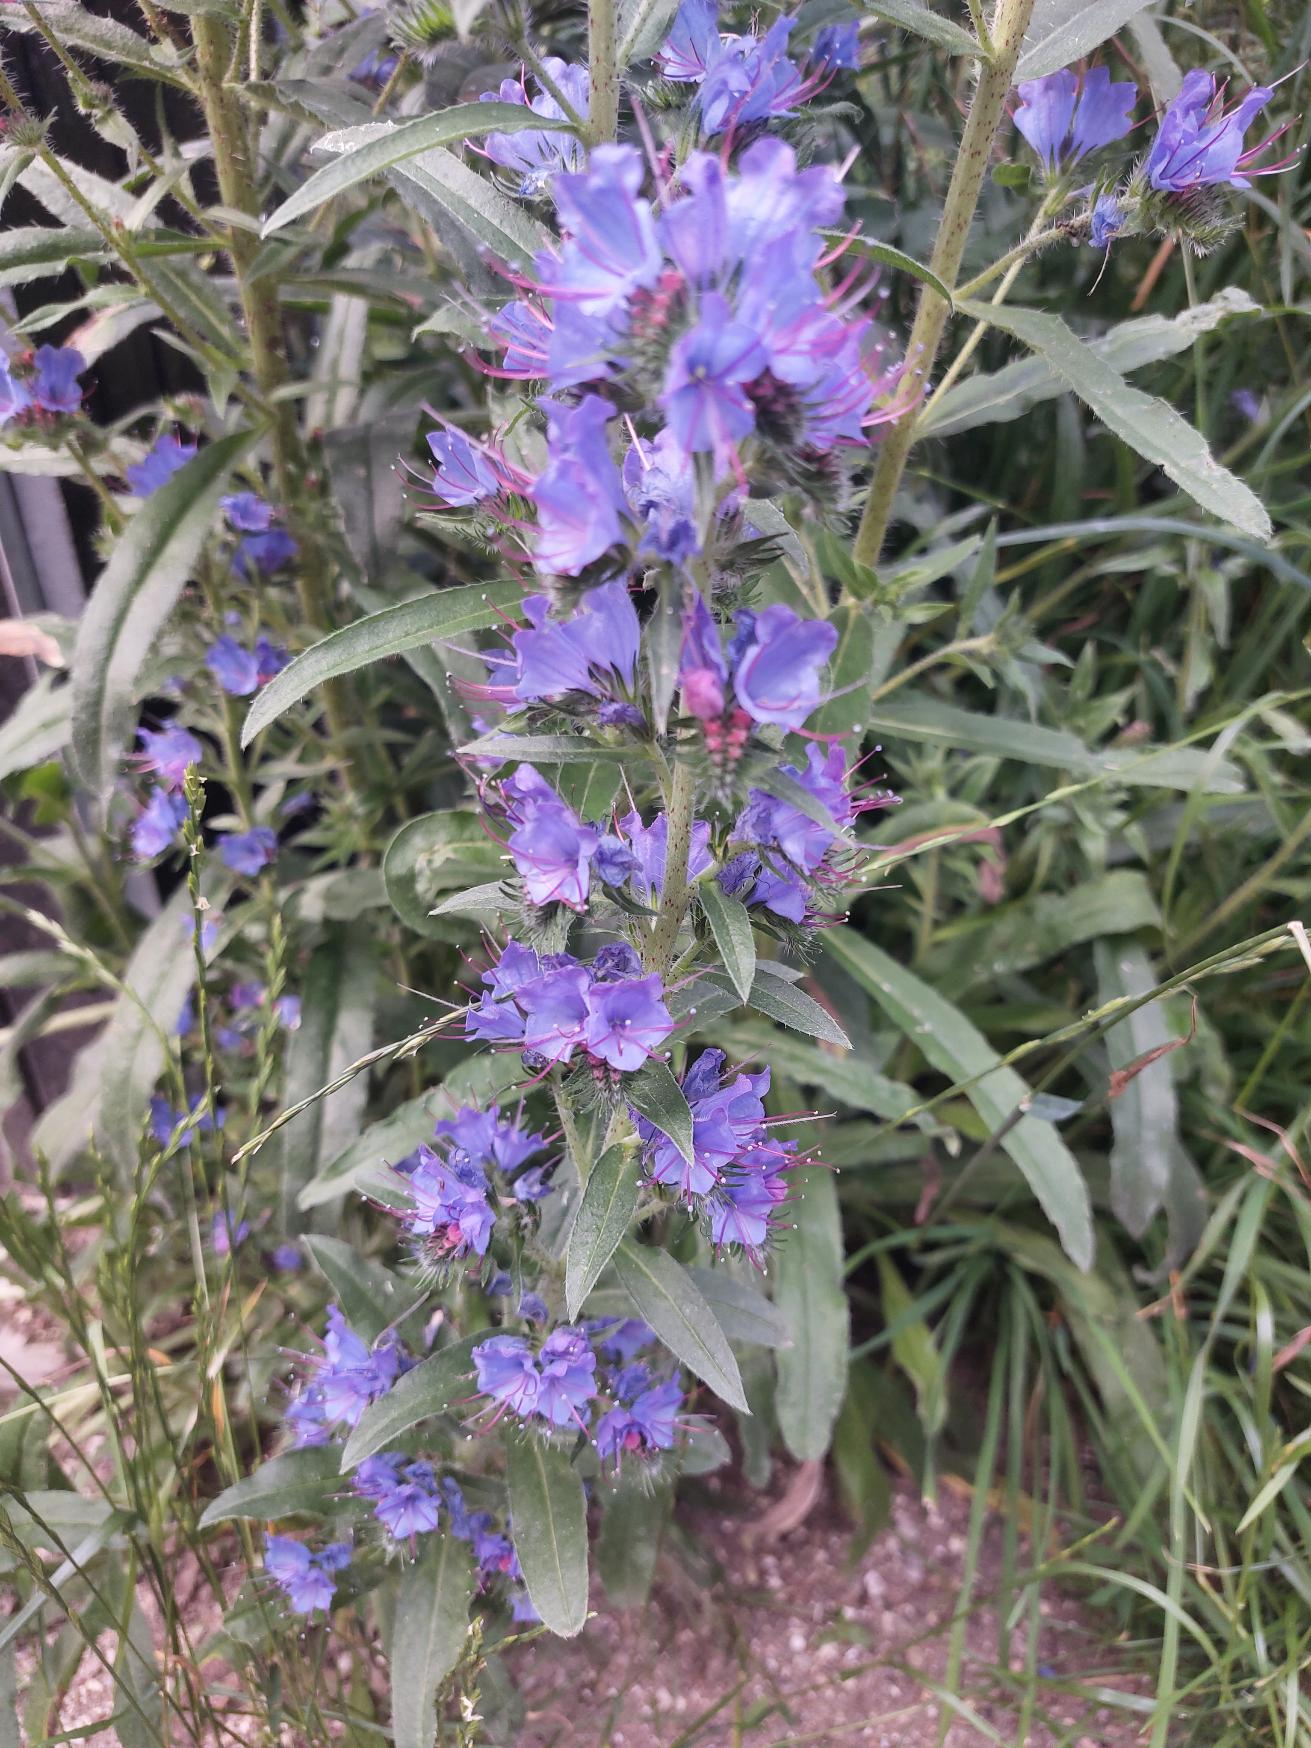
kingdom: Plantae
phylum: Tracheophyta
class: Magnoliopsida
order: Boraginales
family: Boraginaceae
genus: Echium
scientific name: Echium vulgare
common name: Slangehoved
